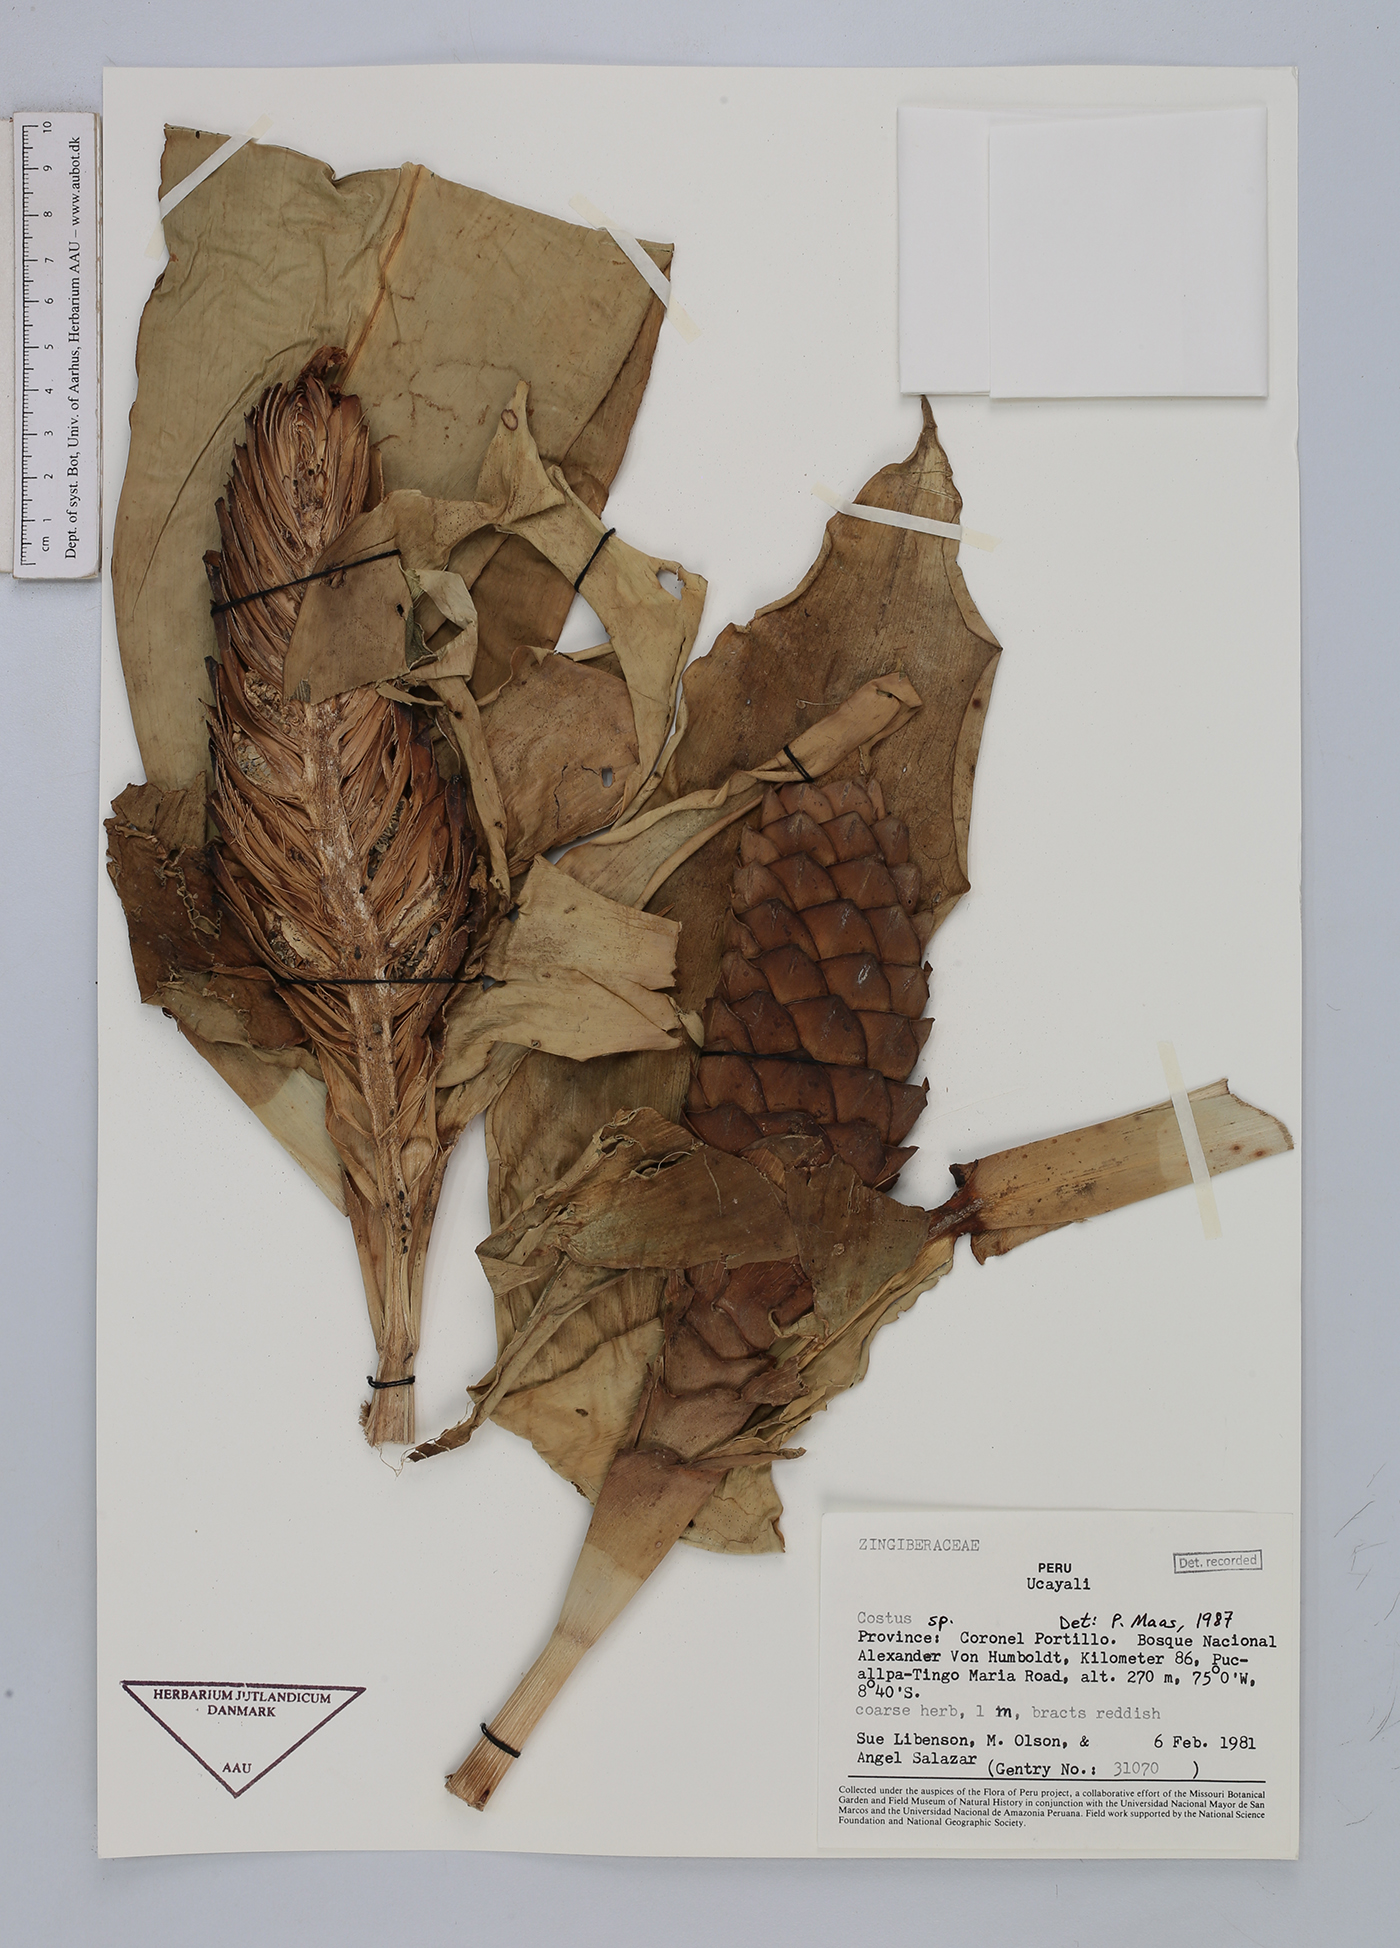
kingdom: Plantae
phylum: Tracheophyta
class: Liliopsida
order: Zingiberales
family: Costaceae
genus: Costus
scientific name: Costus
